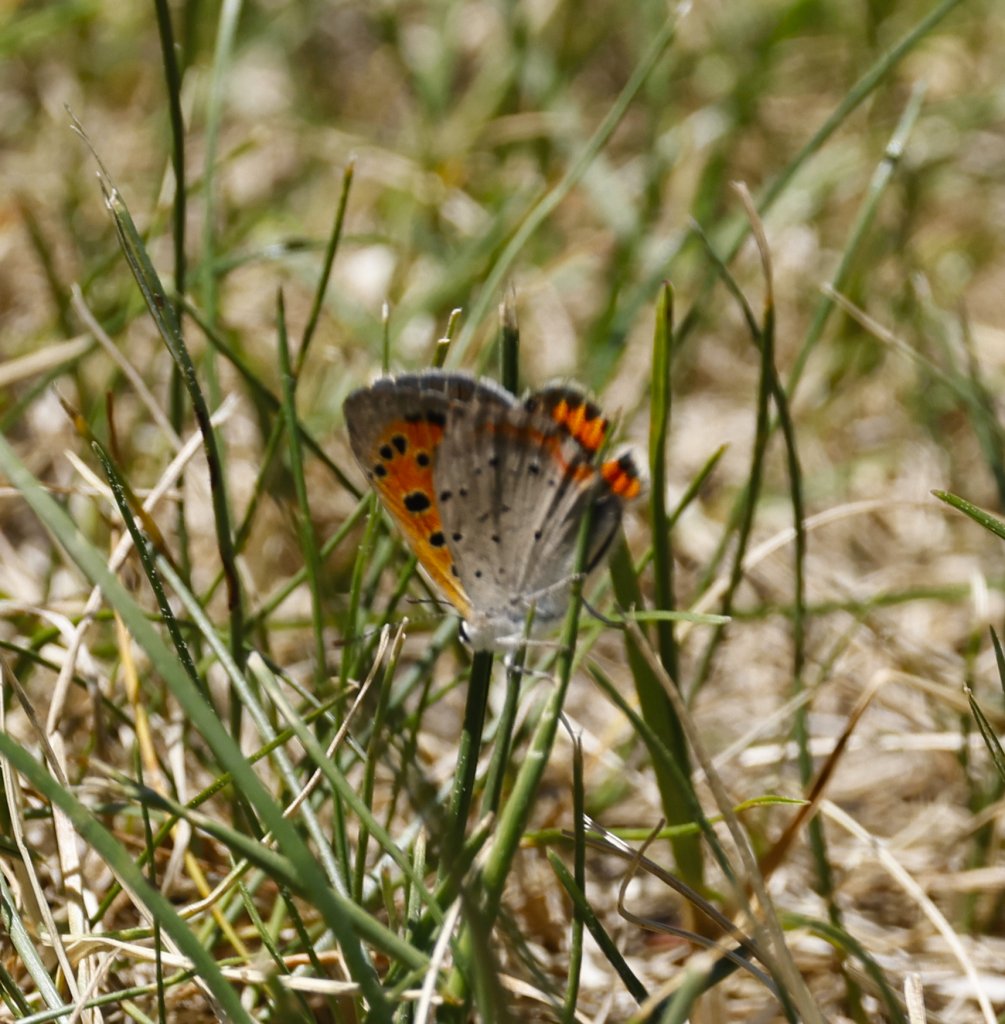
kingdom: Animalia
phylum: Arthropoda
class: Insecta
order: Lepidoptera
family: Lycaenidae
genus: Lycaena
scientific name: Lycaena phlaeas
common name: American Copper
